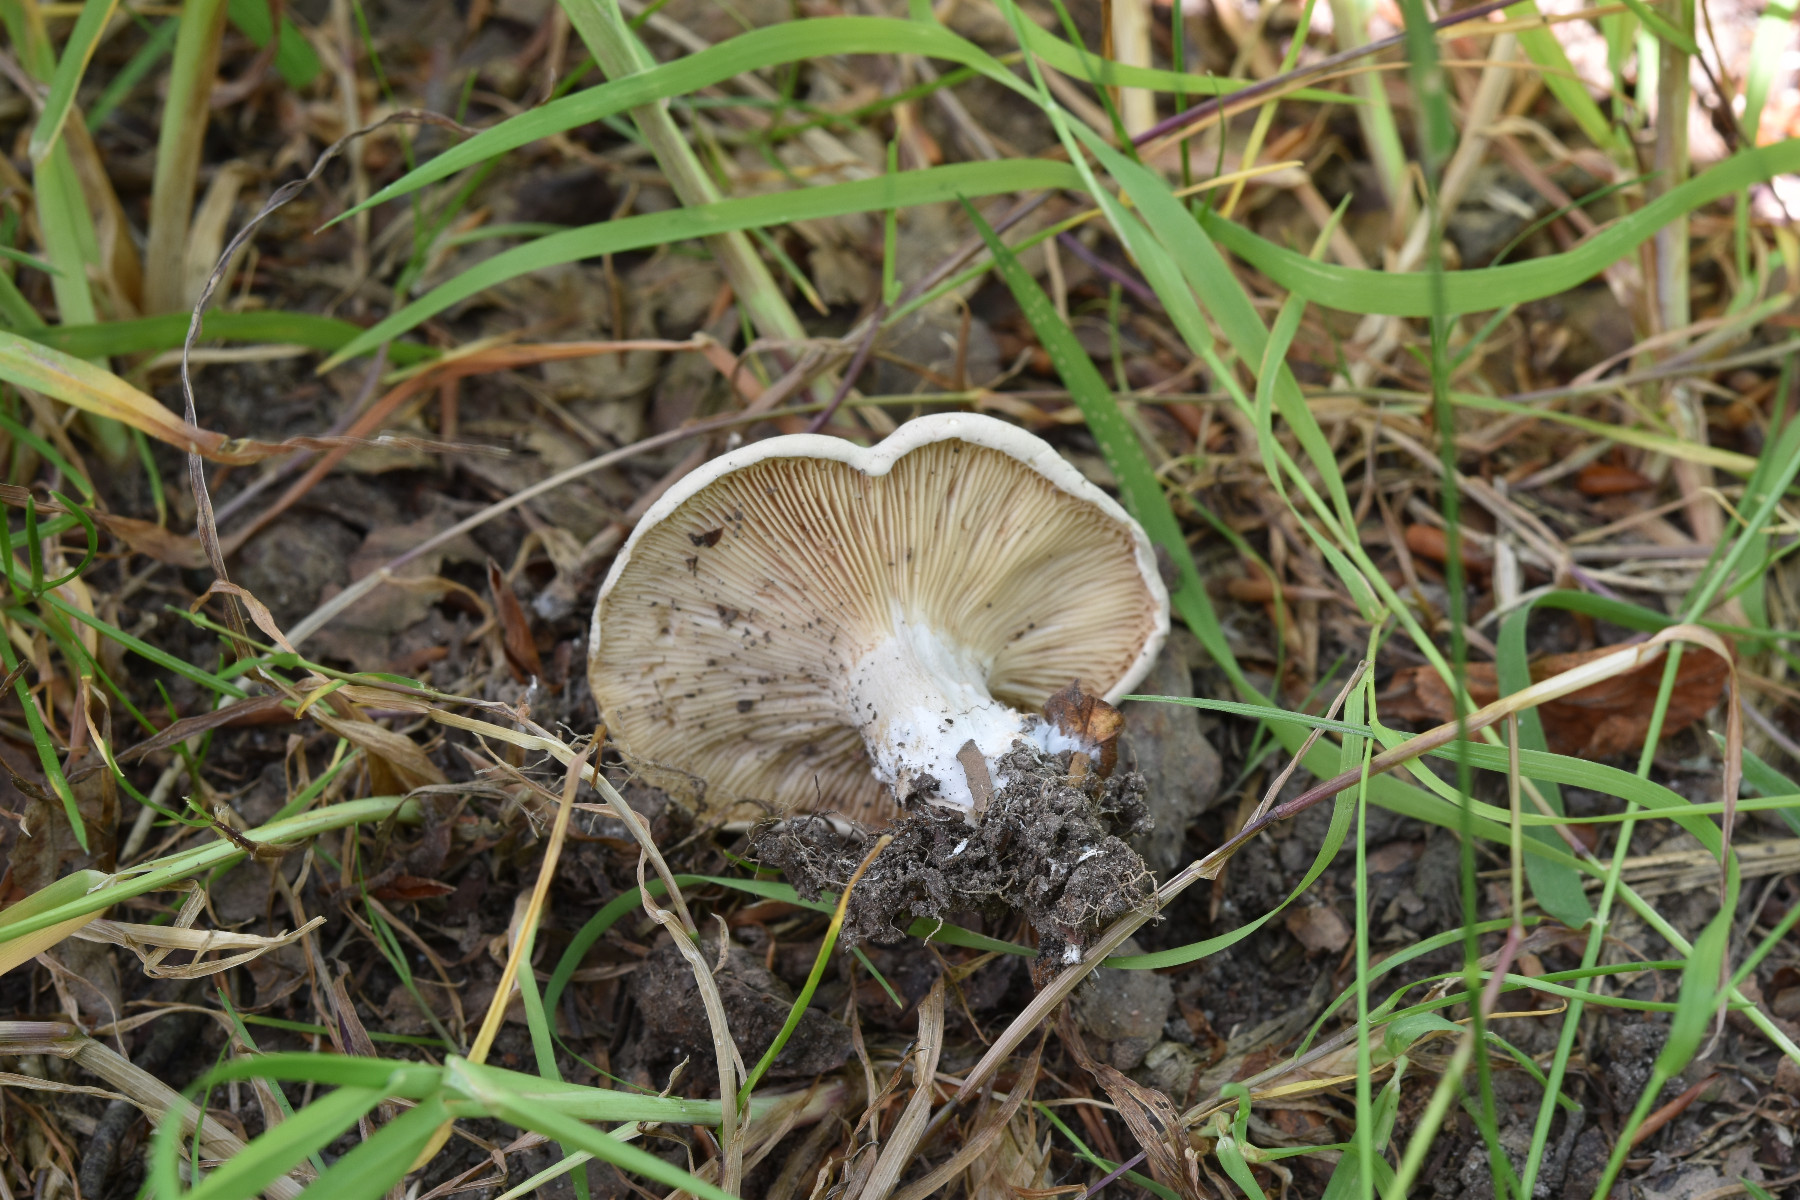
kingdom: Fungi
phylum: Basidiomycota
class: Agaricomycetes
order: Agaricales
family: Entolomataceae
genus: Clitopilus
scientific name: Clitopilus prunulus
